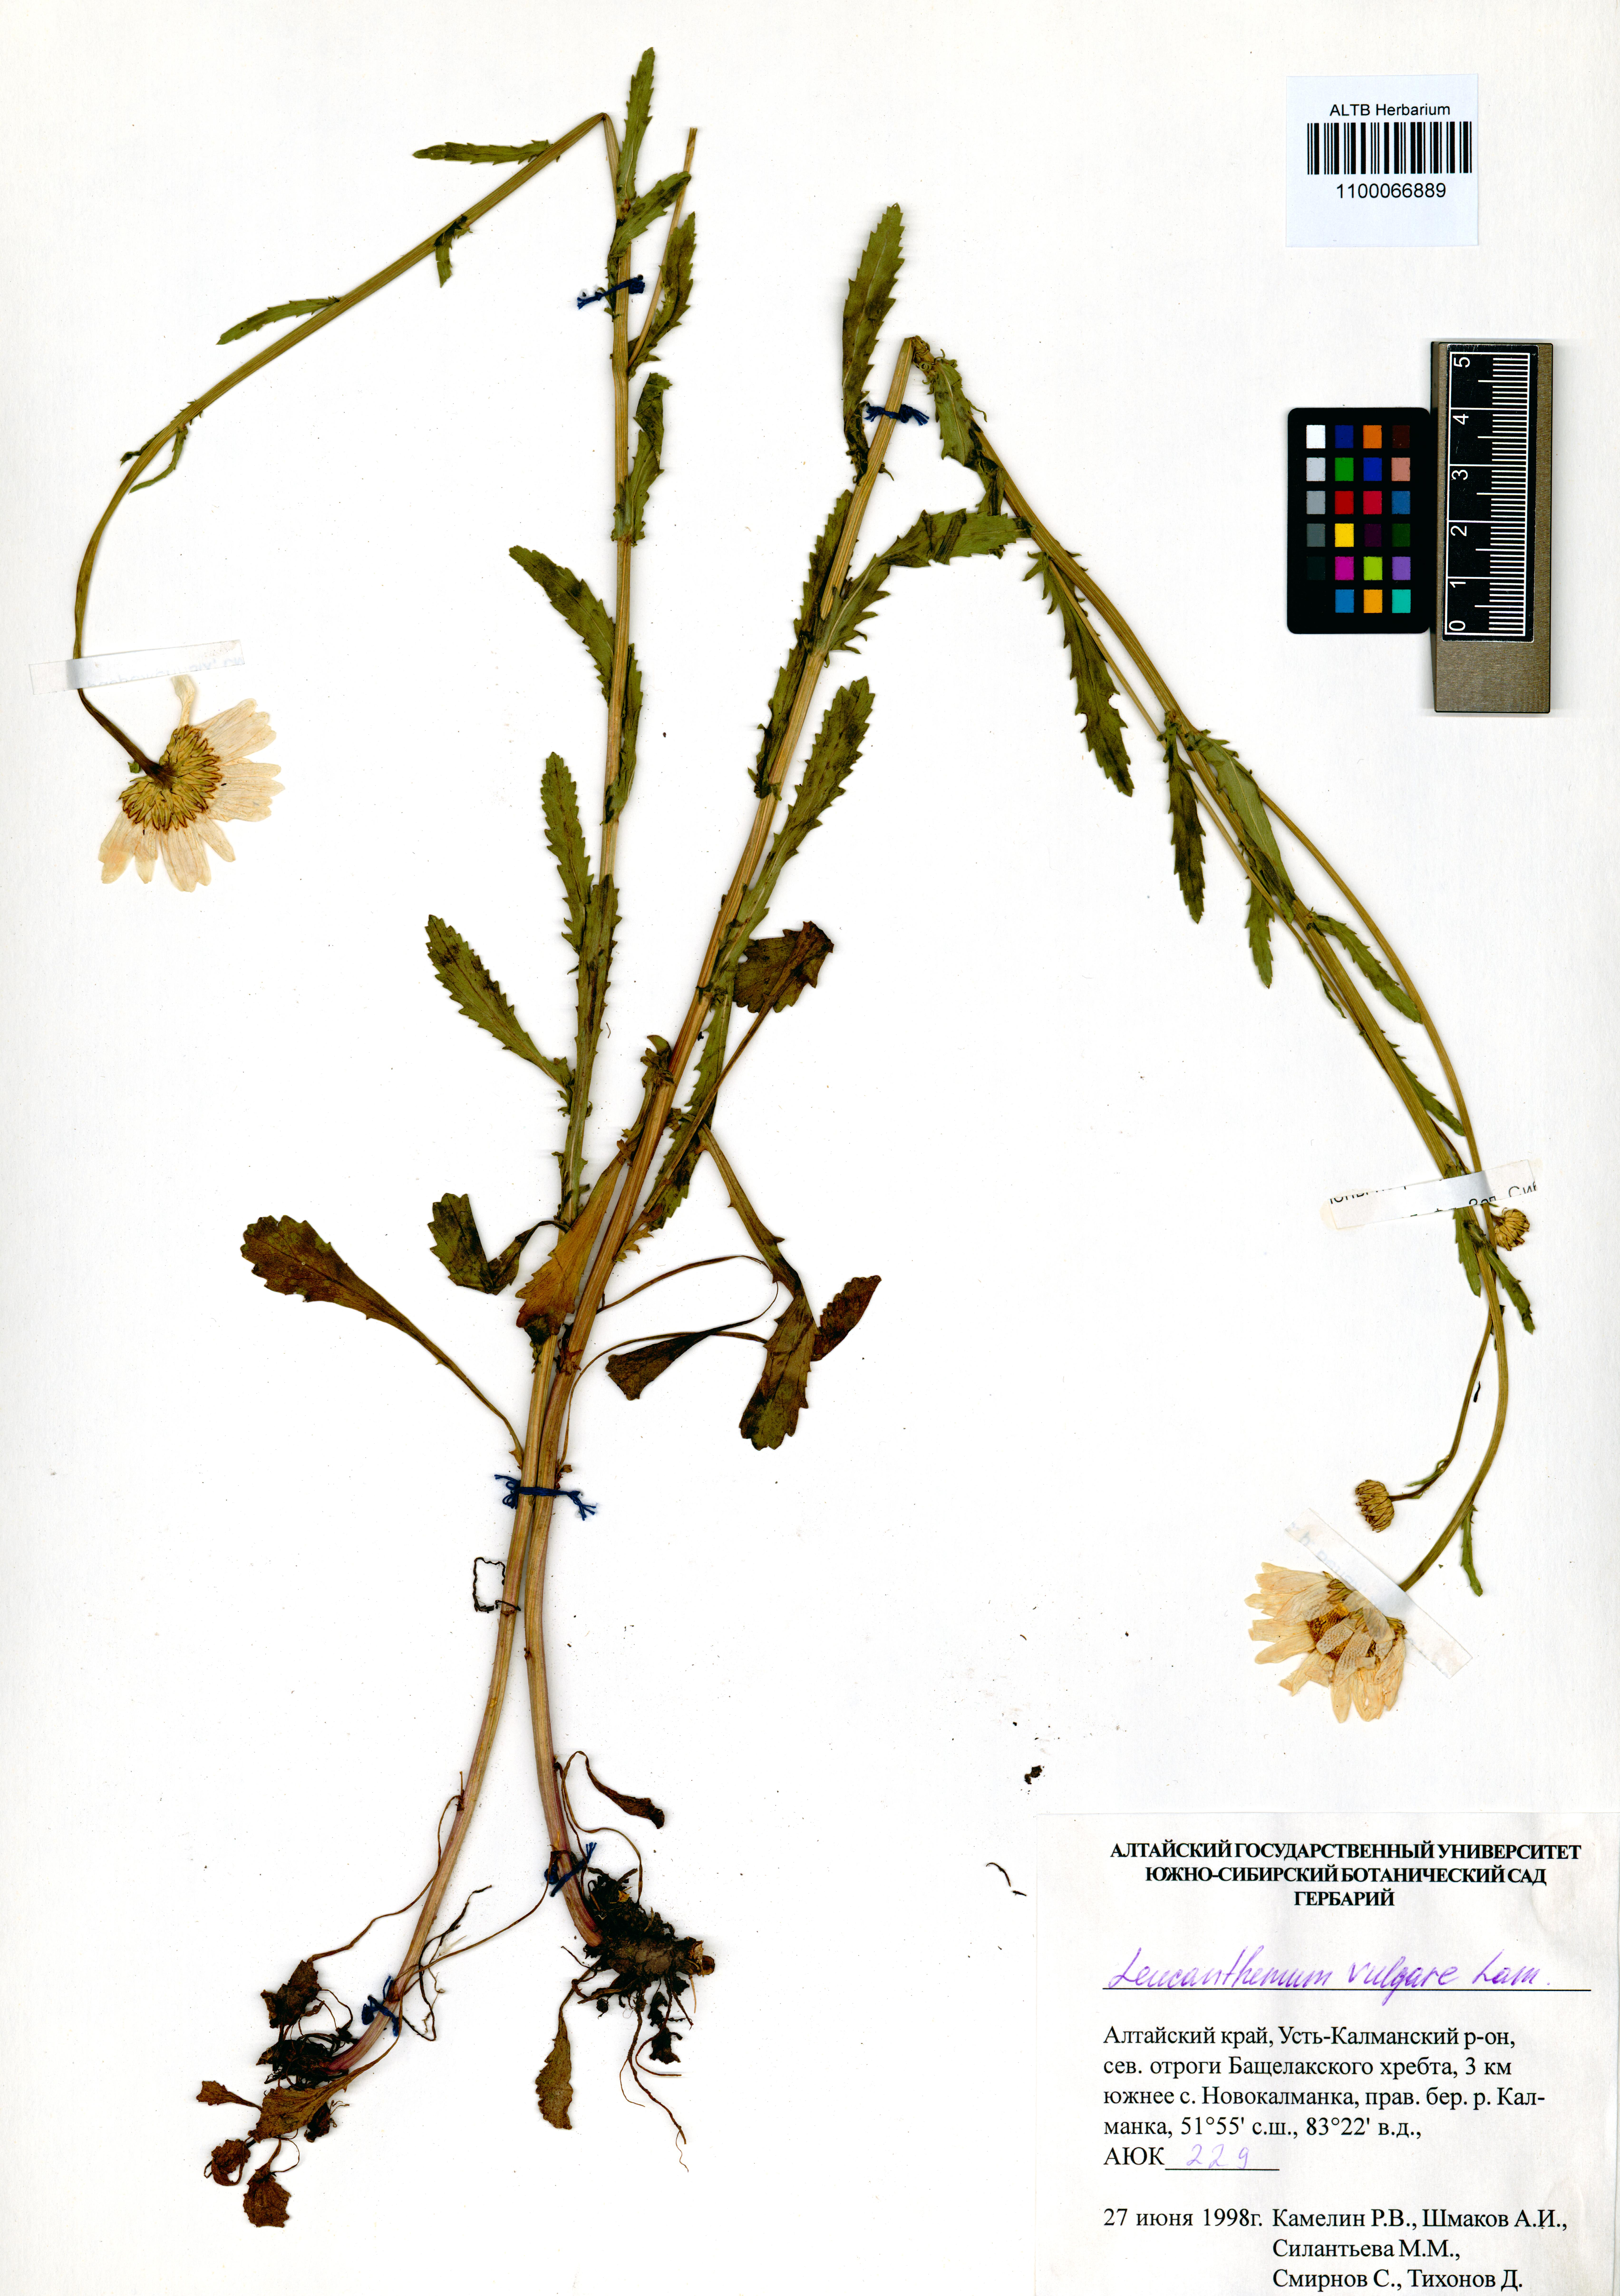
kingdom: Plantae
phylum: Tracheophyta
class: Magnoliopsida
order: Asterales
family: Asteraceae
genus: Leucanthemum
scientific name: Leucanthemum vulgare
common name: Oxeye daisy
